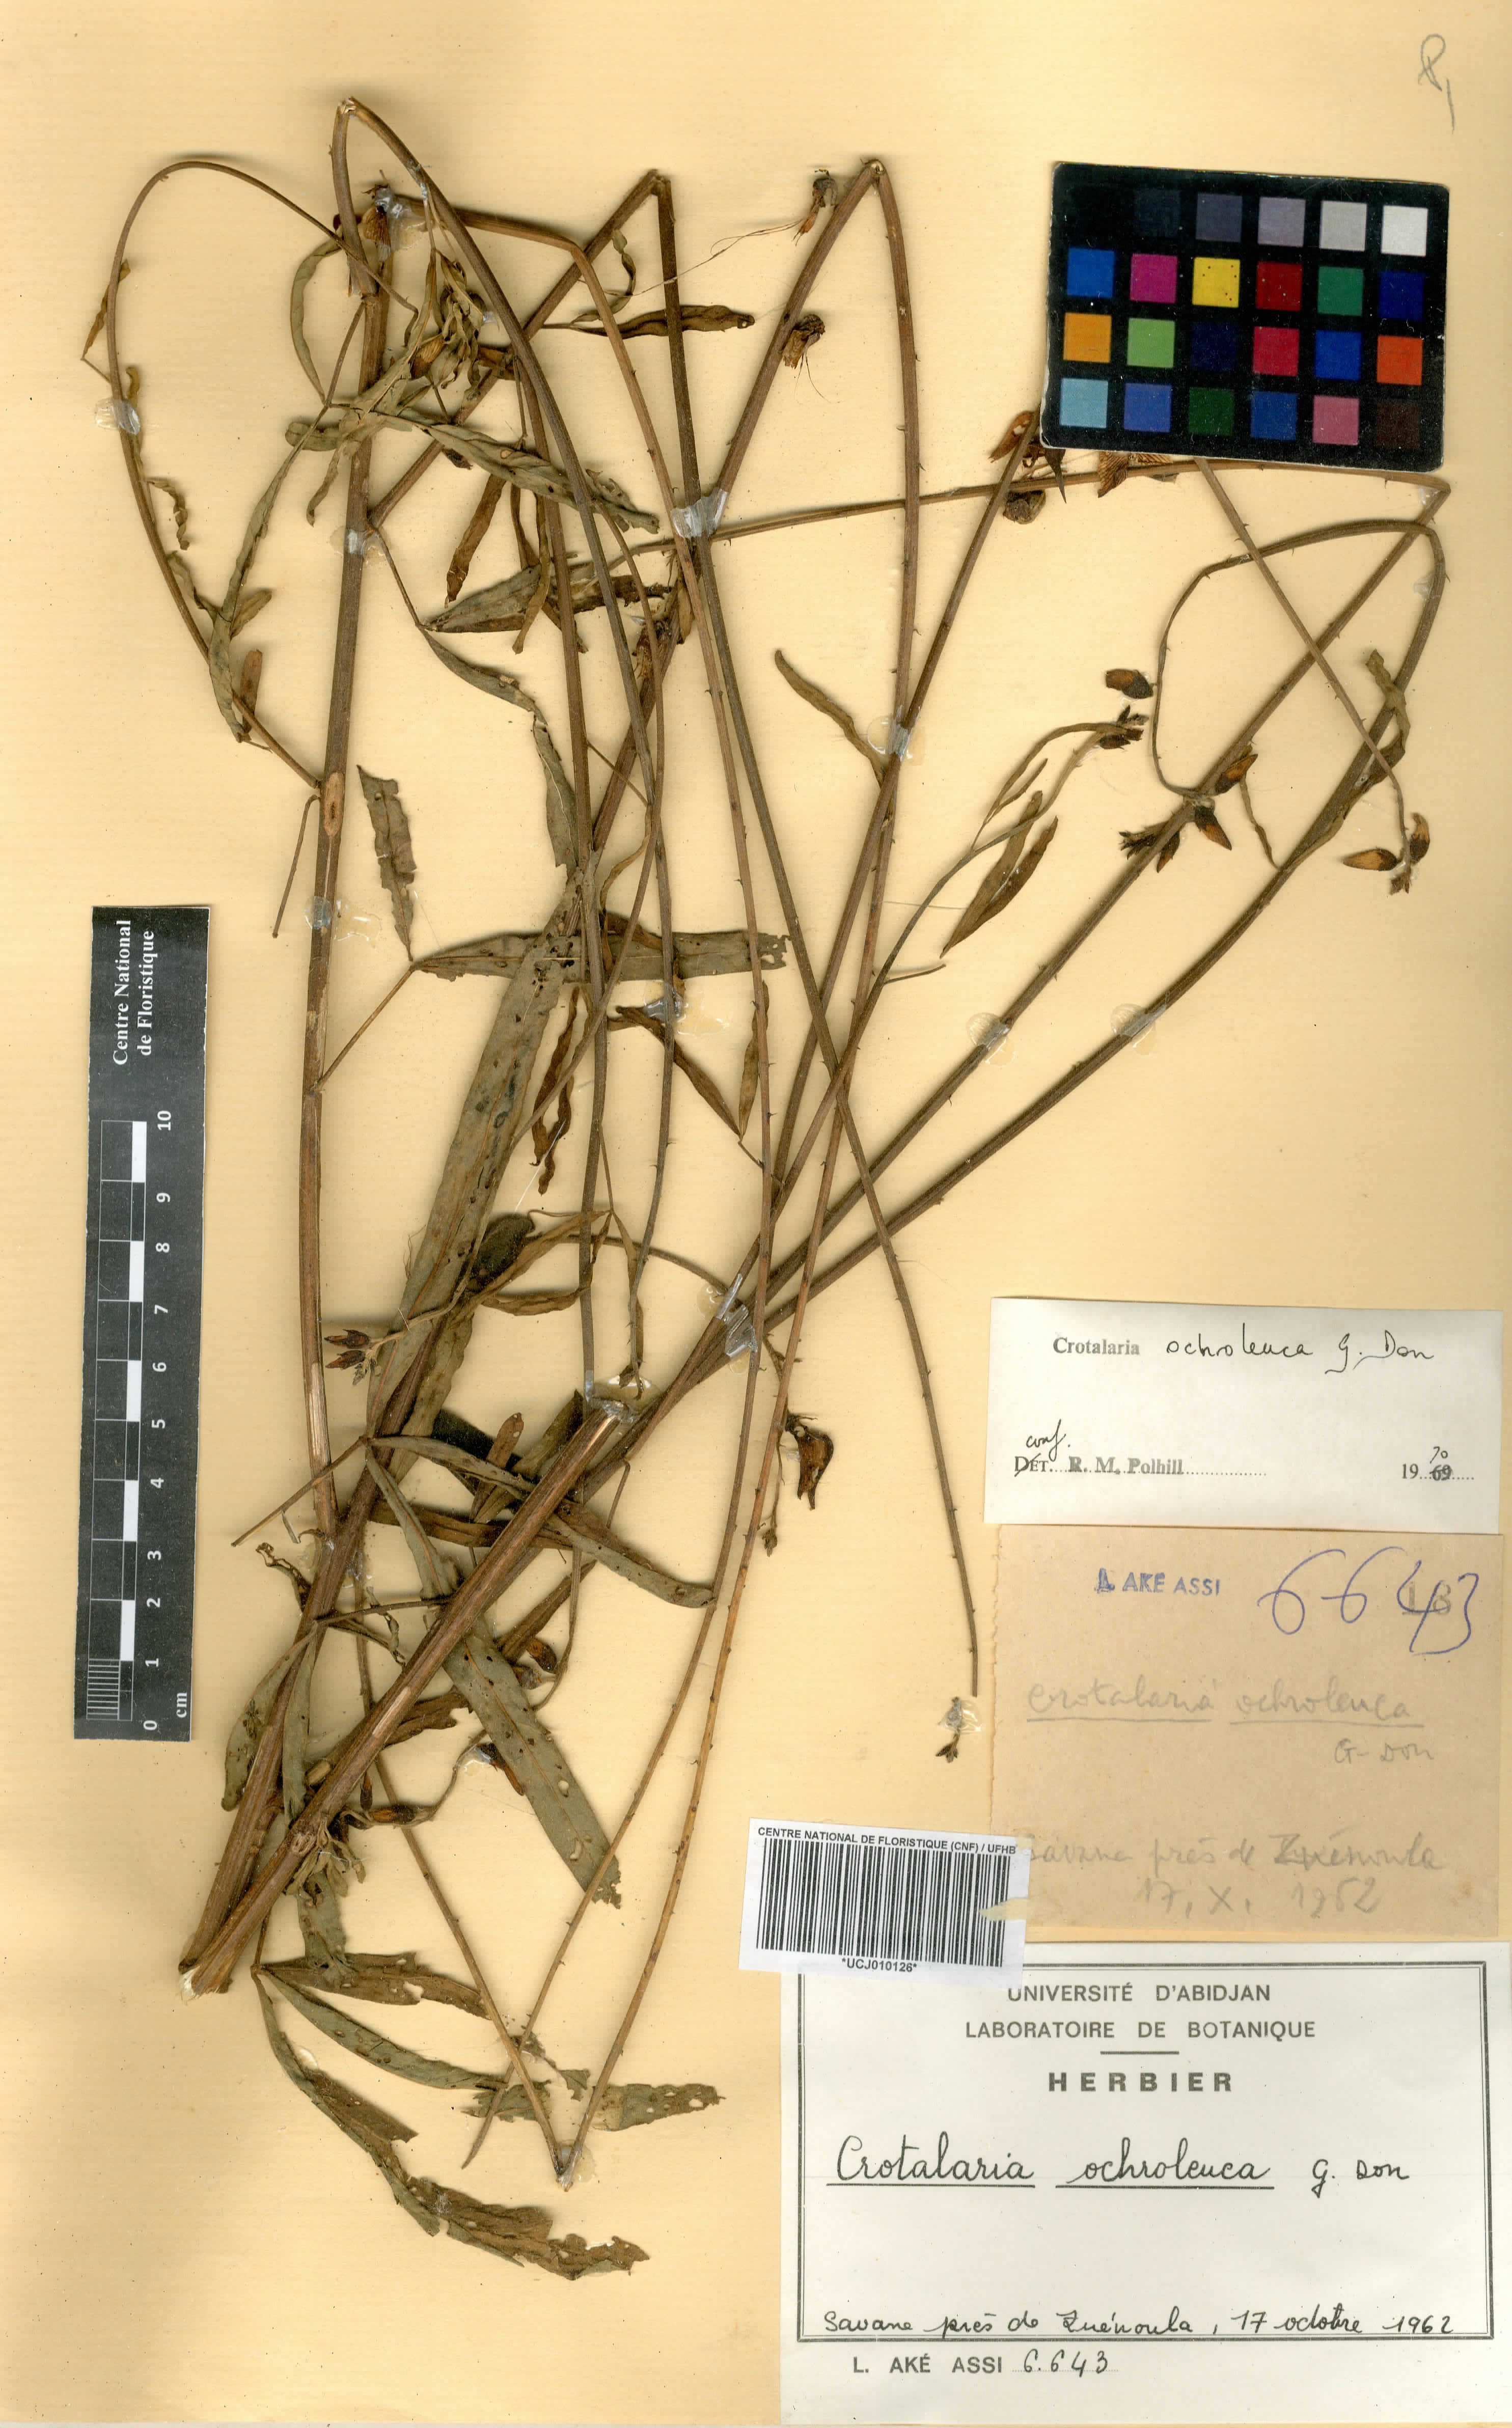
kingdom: Plantae
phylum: Tracheophyta
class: Magnoliopsida
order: Fabales
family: Fabaceae
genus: Crotalaria
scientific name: Crotalaria ochroleuca
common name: Slender leaf rattlebox
